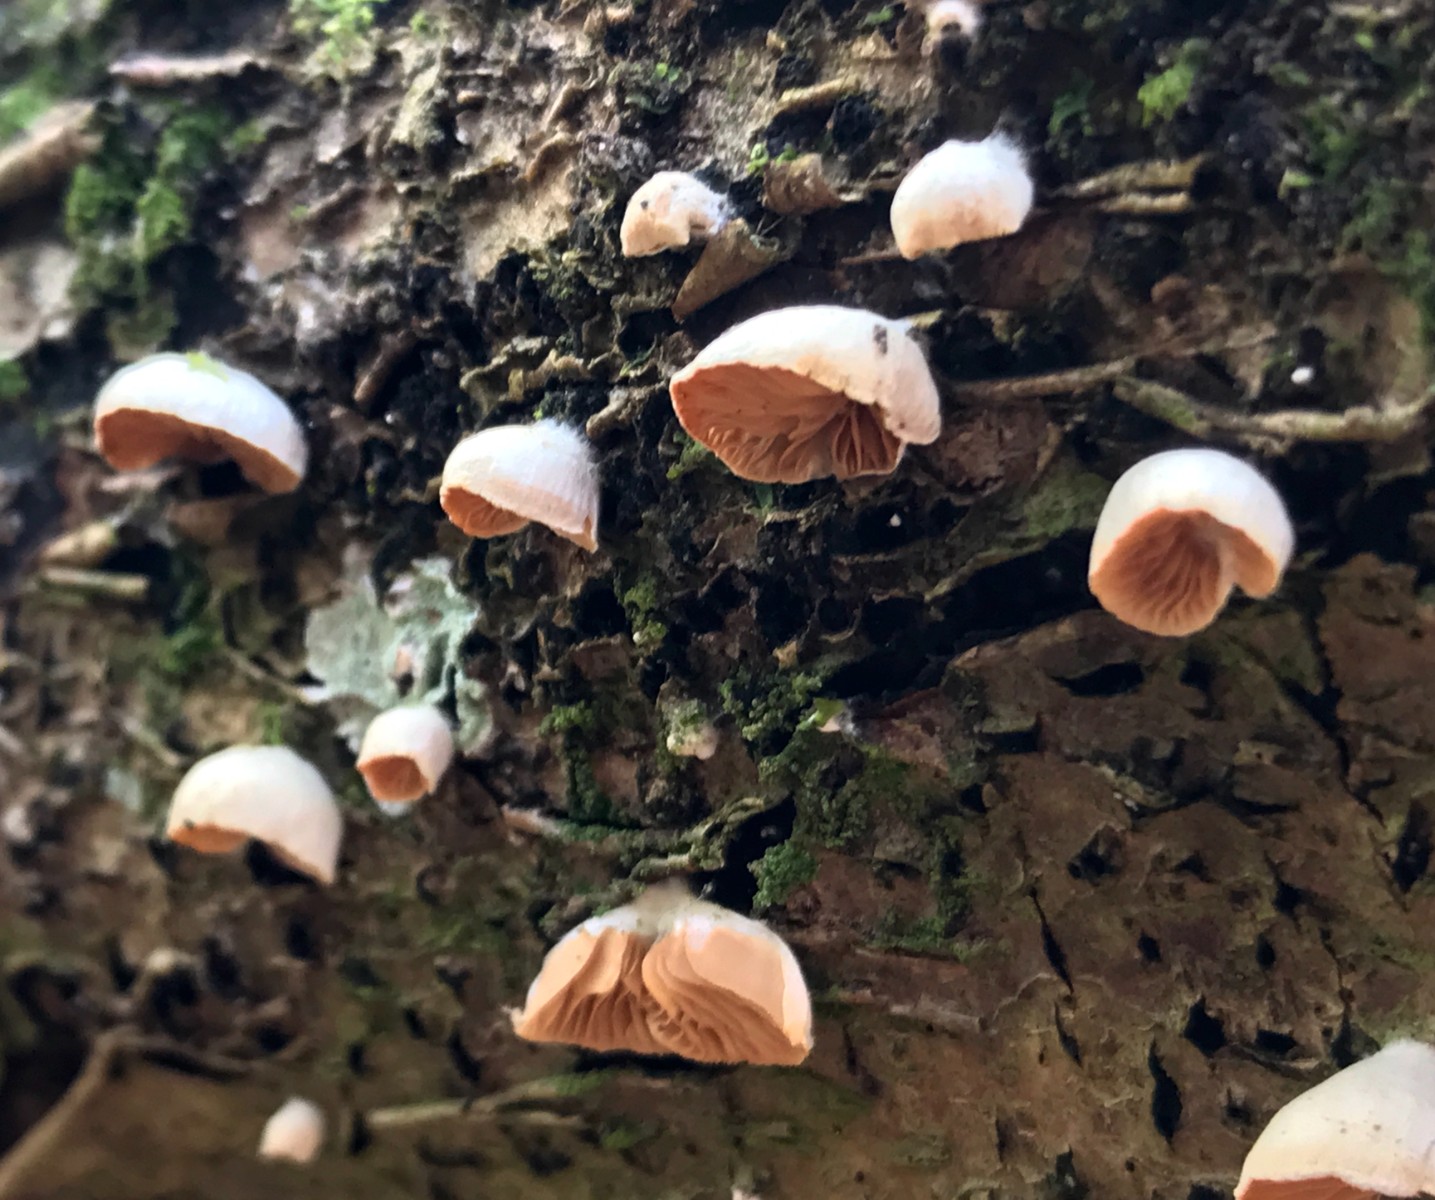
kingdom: Fungi
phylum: Basidiomycota
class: Agaricomycetes
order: Agaricales
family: Crepidotaceae
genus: Crepidotus
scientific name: Crepidotus
